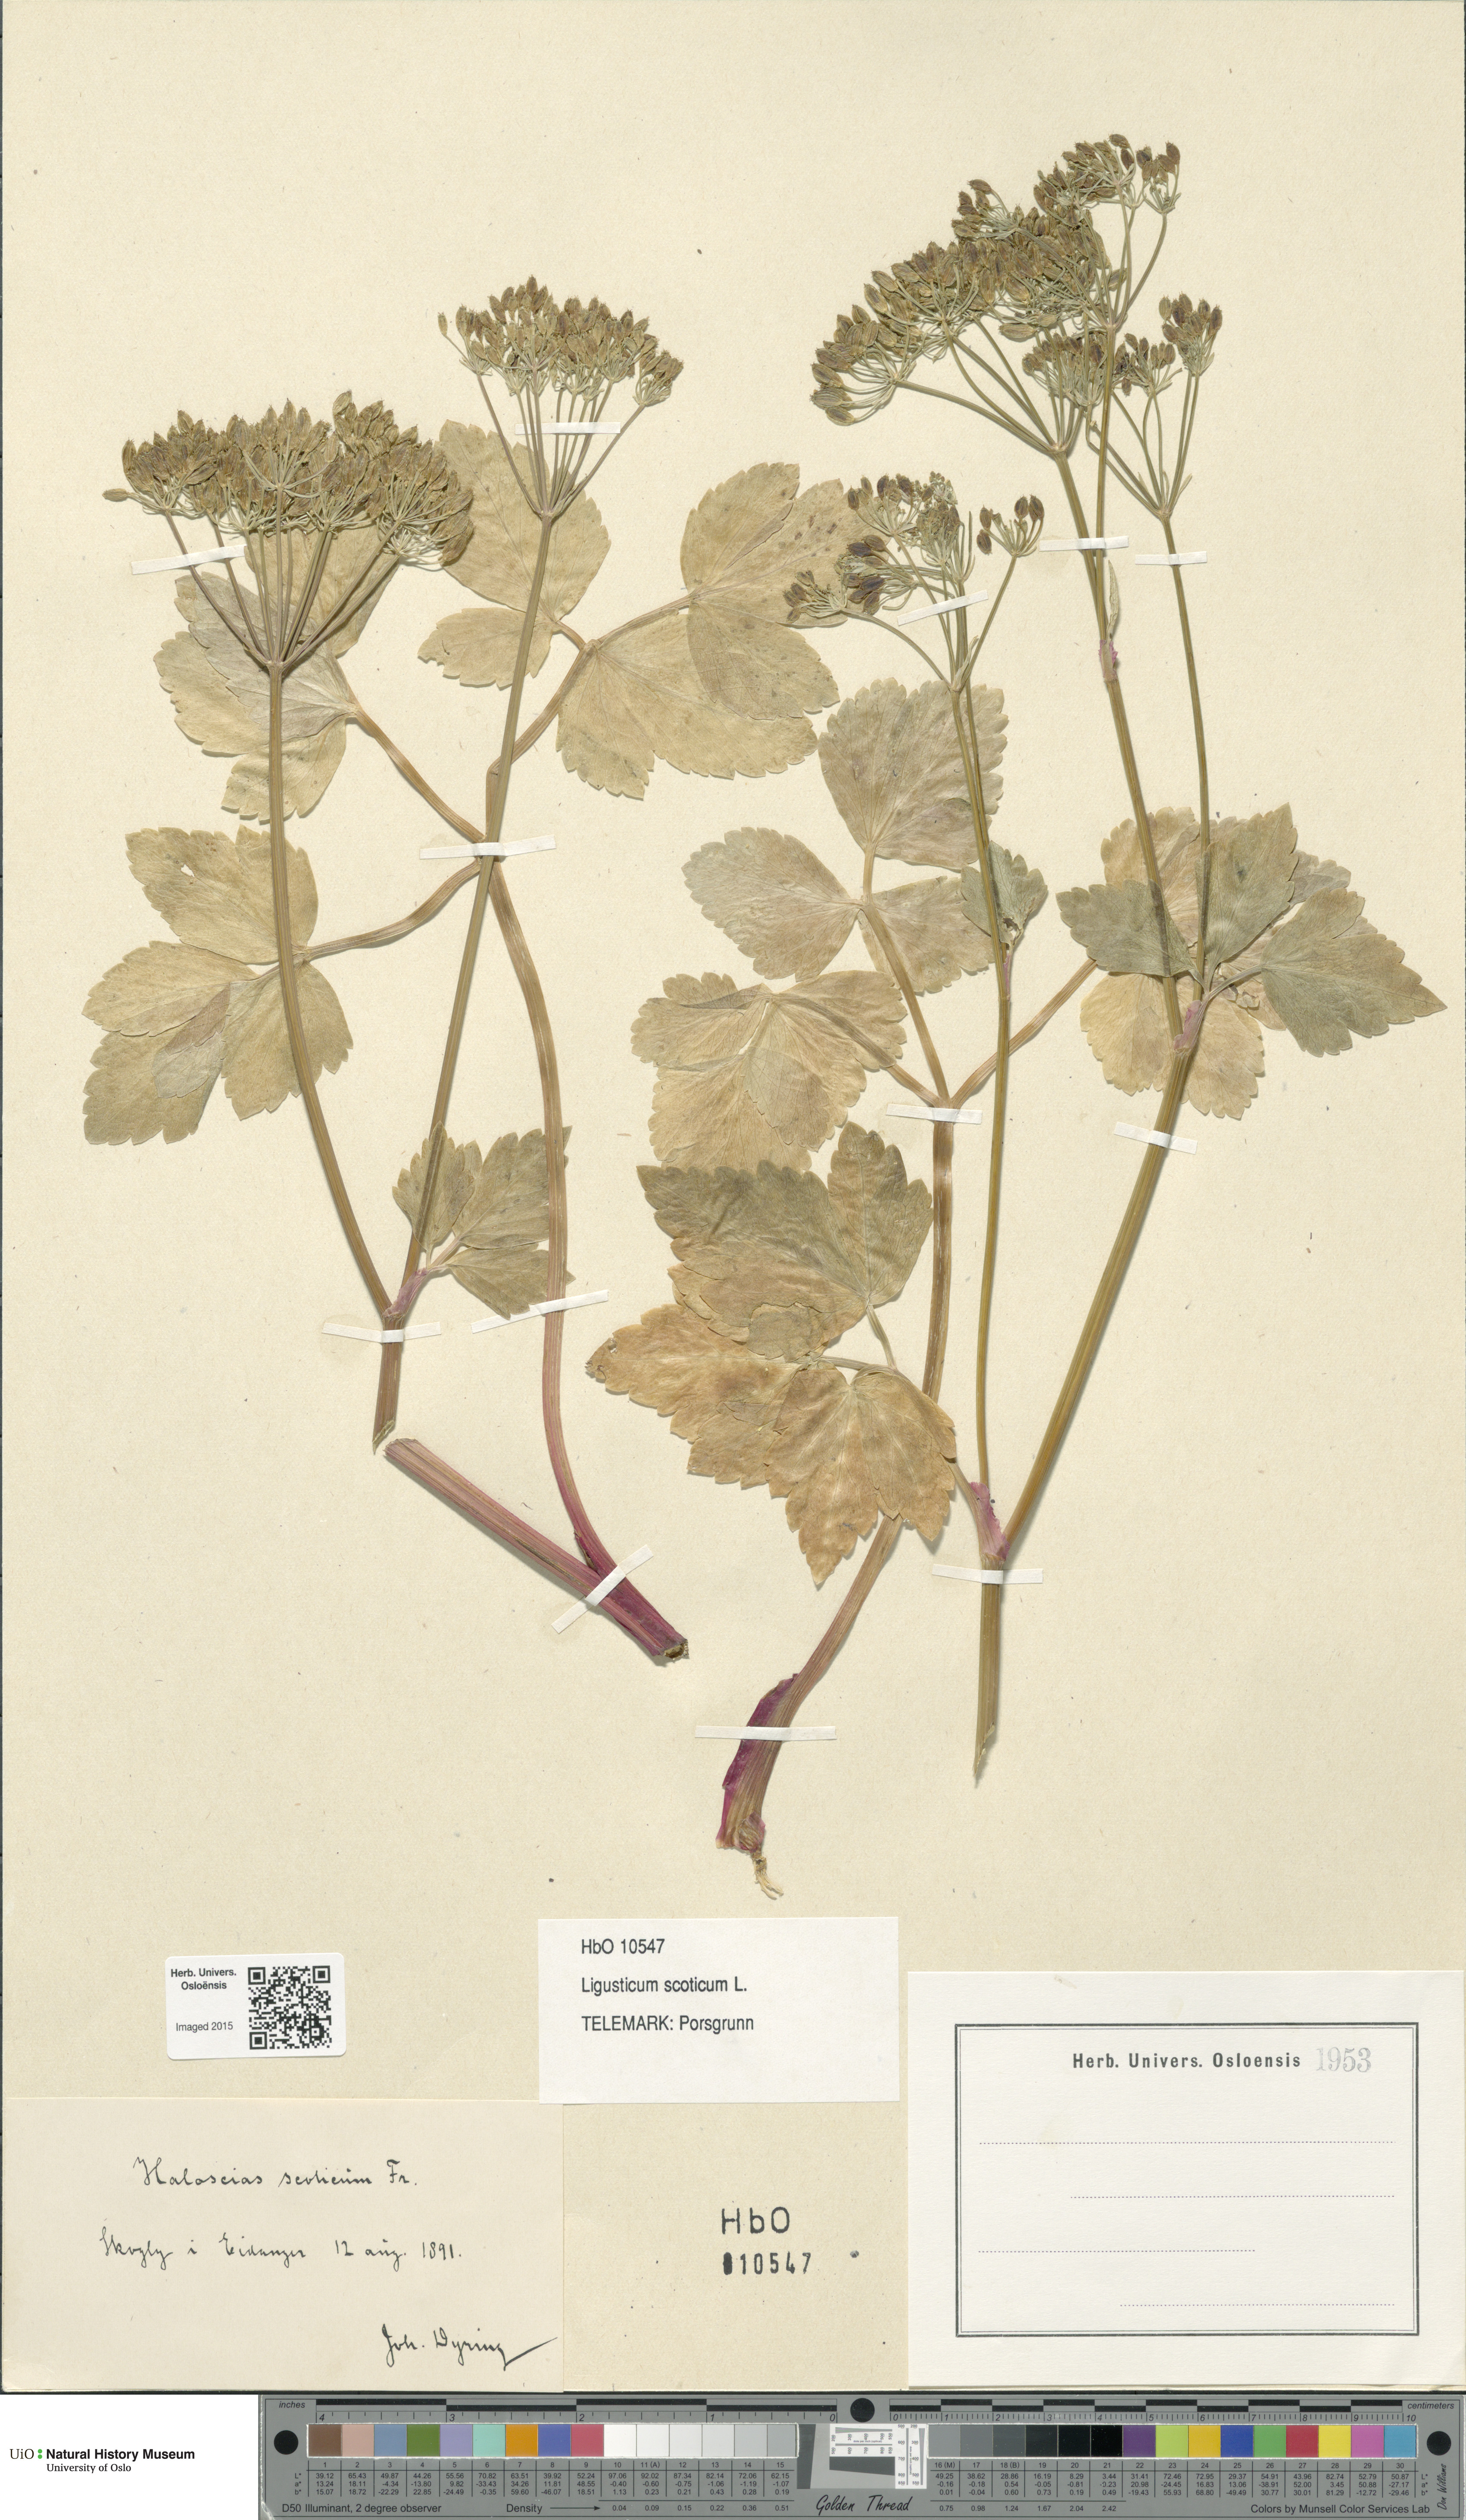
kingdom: Plantae
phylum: Tracheophyta
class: Magnoliopsida
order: Apiales
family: Apiaceae
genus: Ligusticum
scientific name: Ligusticum scothicum
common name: Beach lovage
